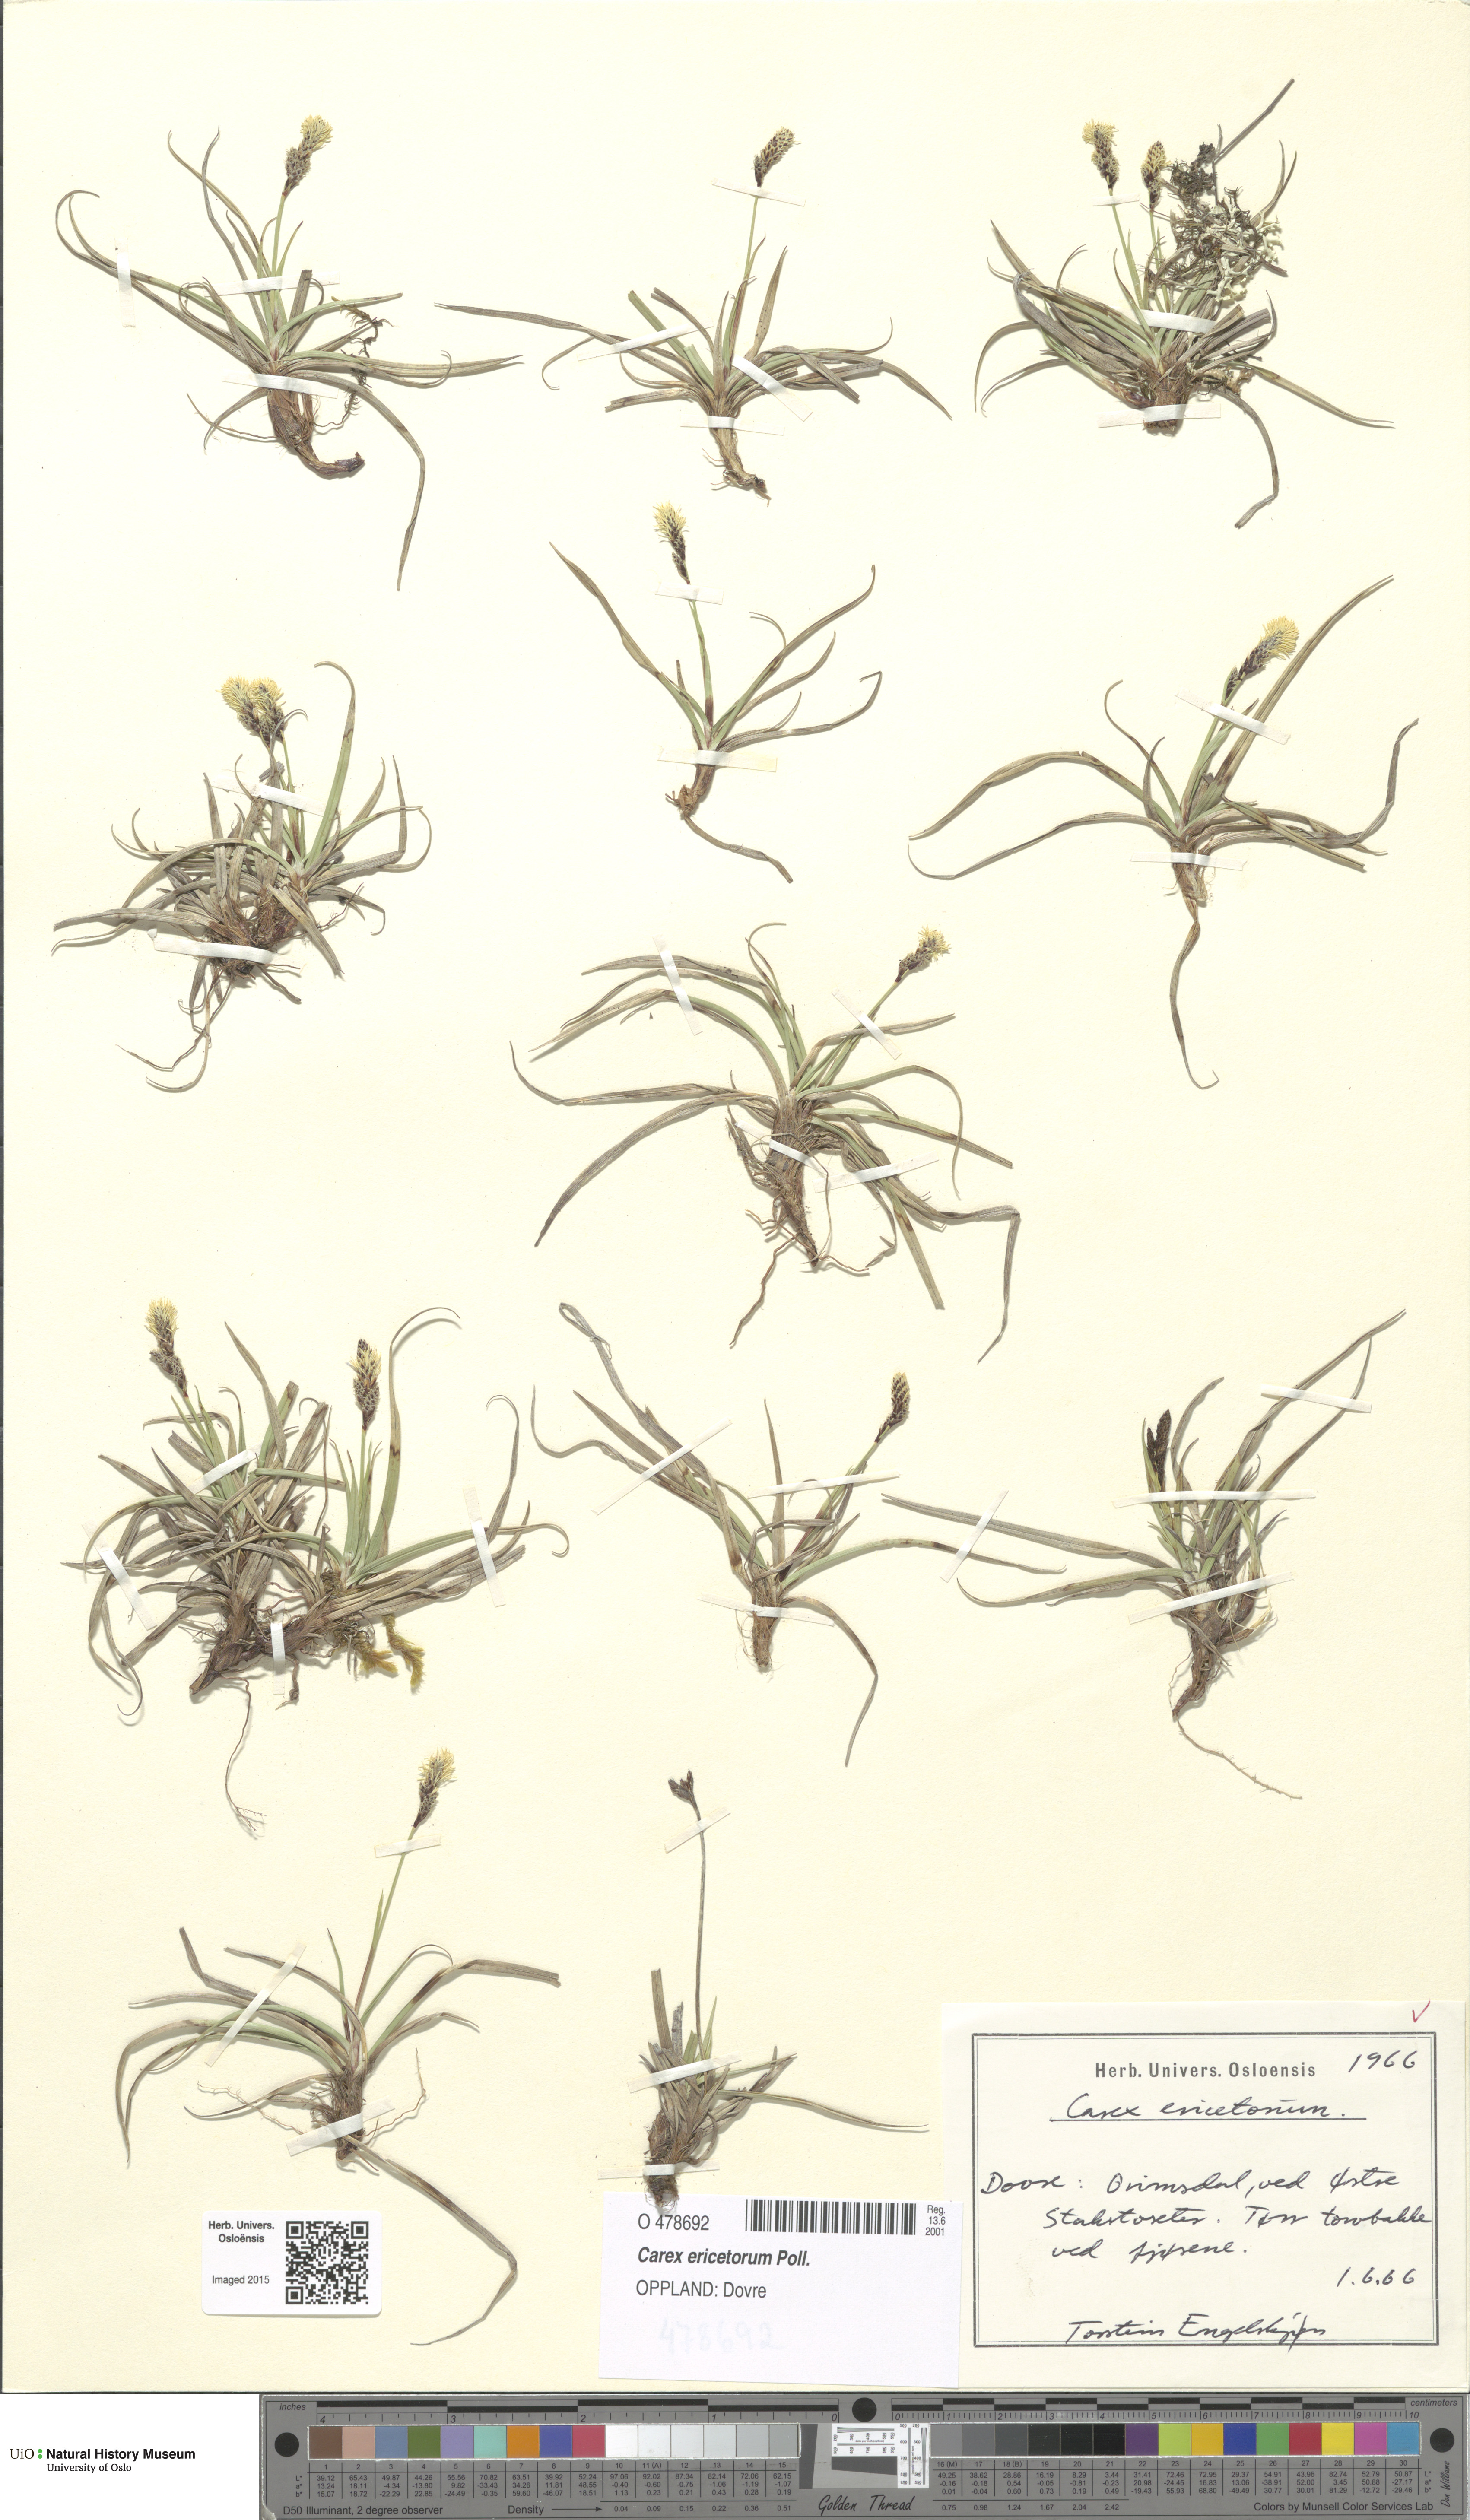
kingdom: Plantae
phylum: Tracheophyta
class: Liliopsida
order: Poales
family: Cyperaceae
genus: Carex
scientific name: Carex ericetorum
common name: Rare spring-sedge
